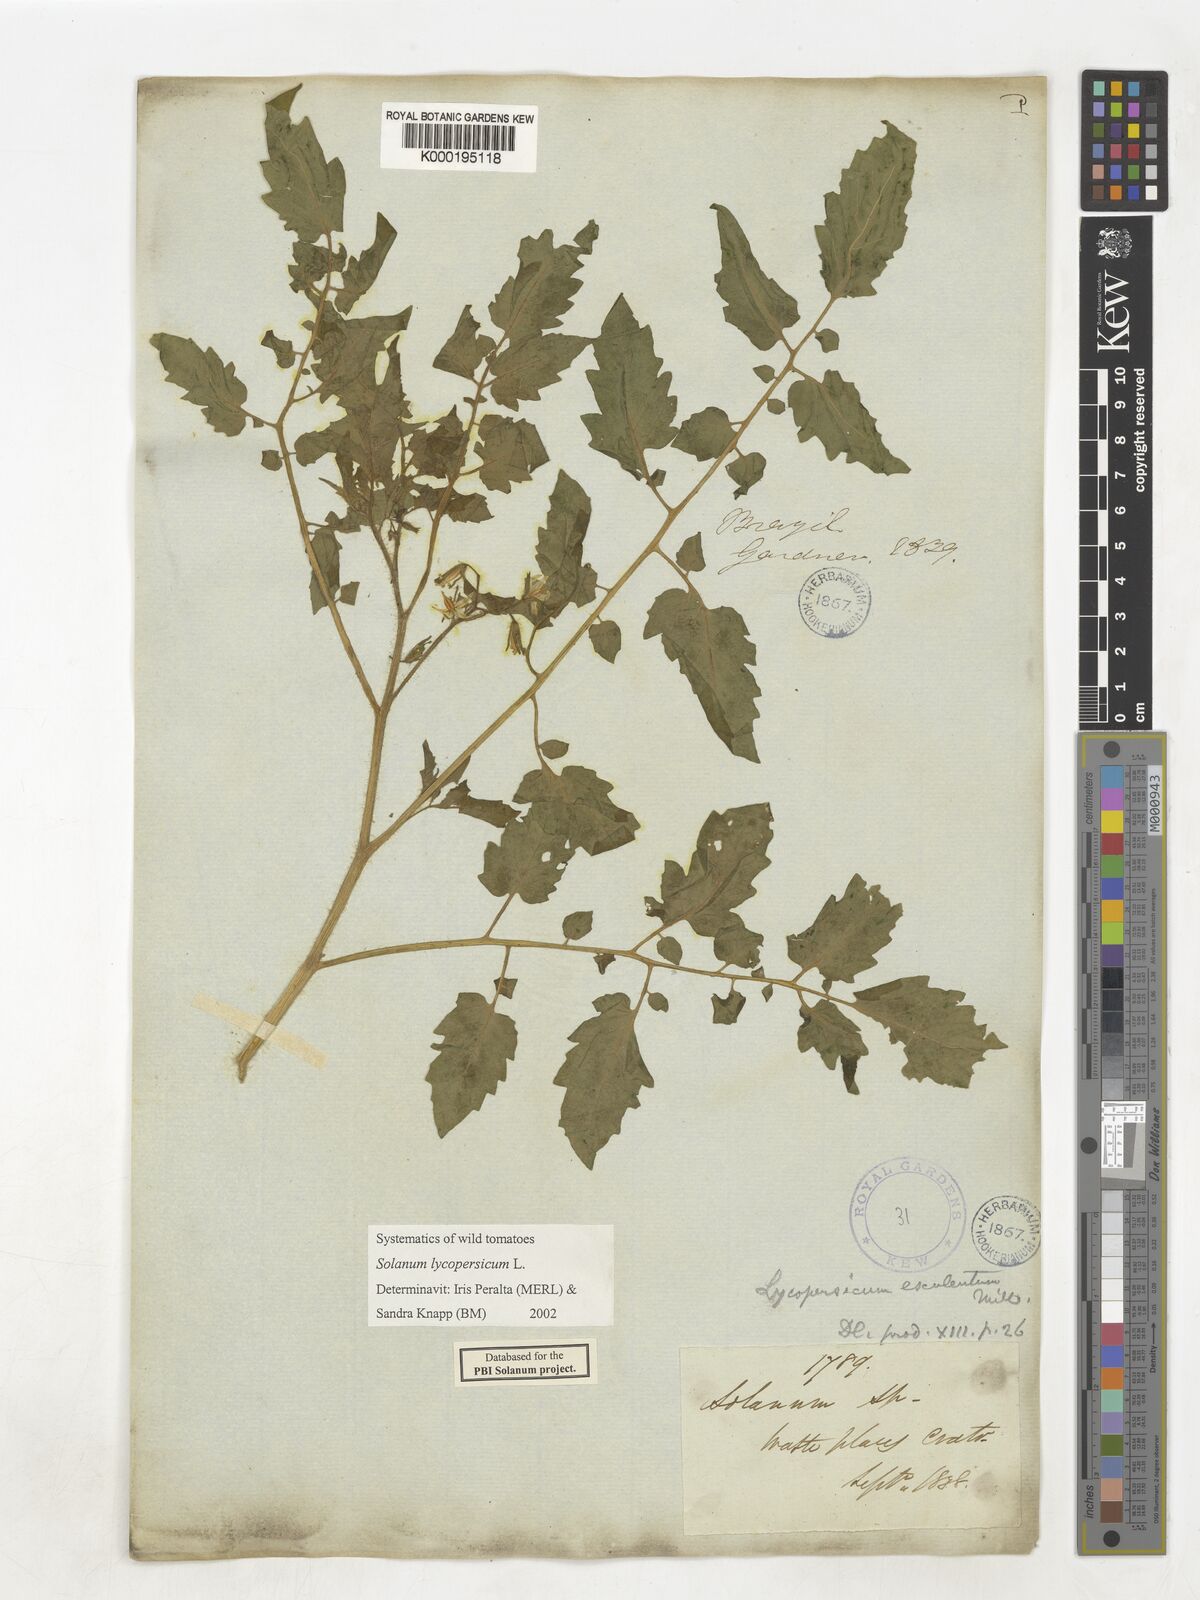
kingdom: Plantae
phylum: Tracheophyta
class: Magnoliopsida
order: Solanales
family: Solanaceae
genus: Solanum
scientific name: Solanum lycopersicum
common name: Garden tomato
